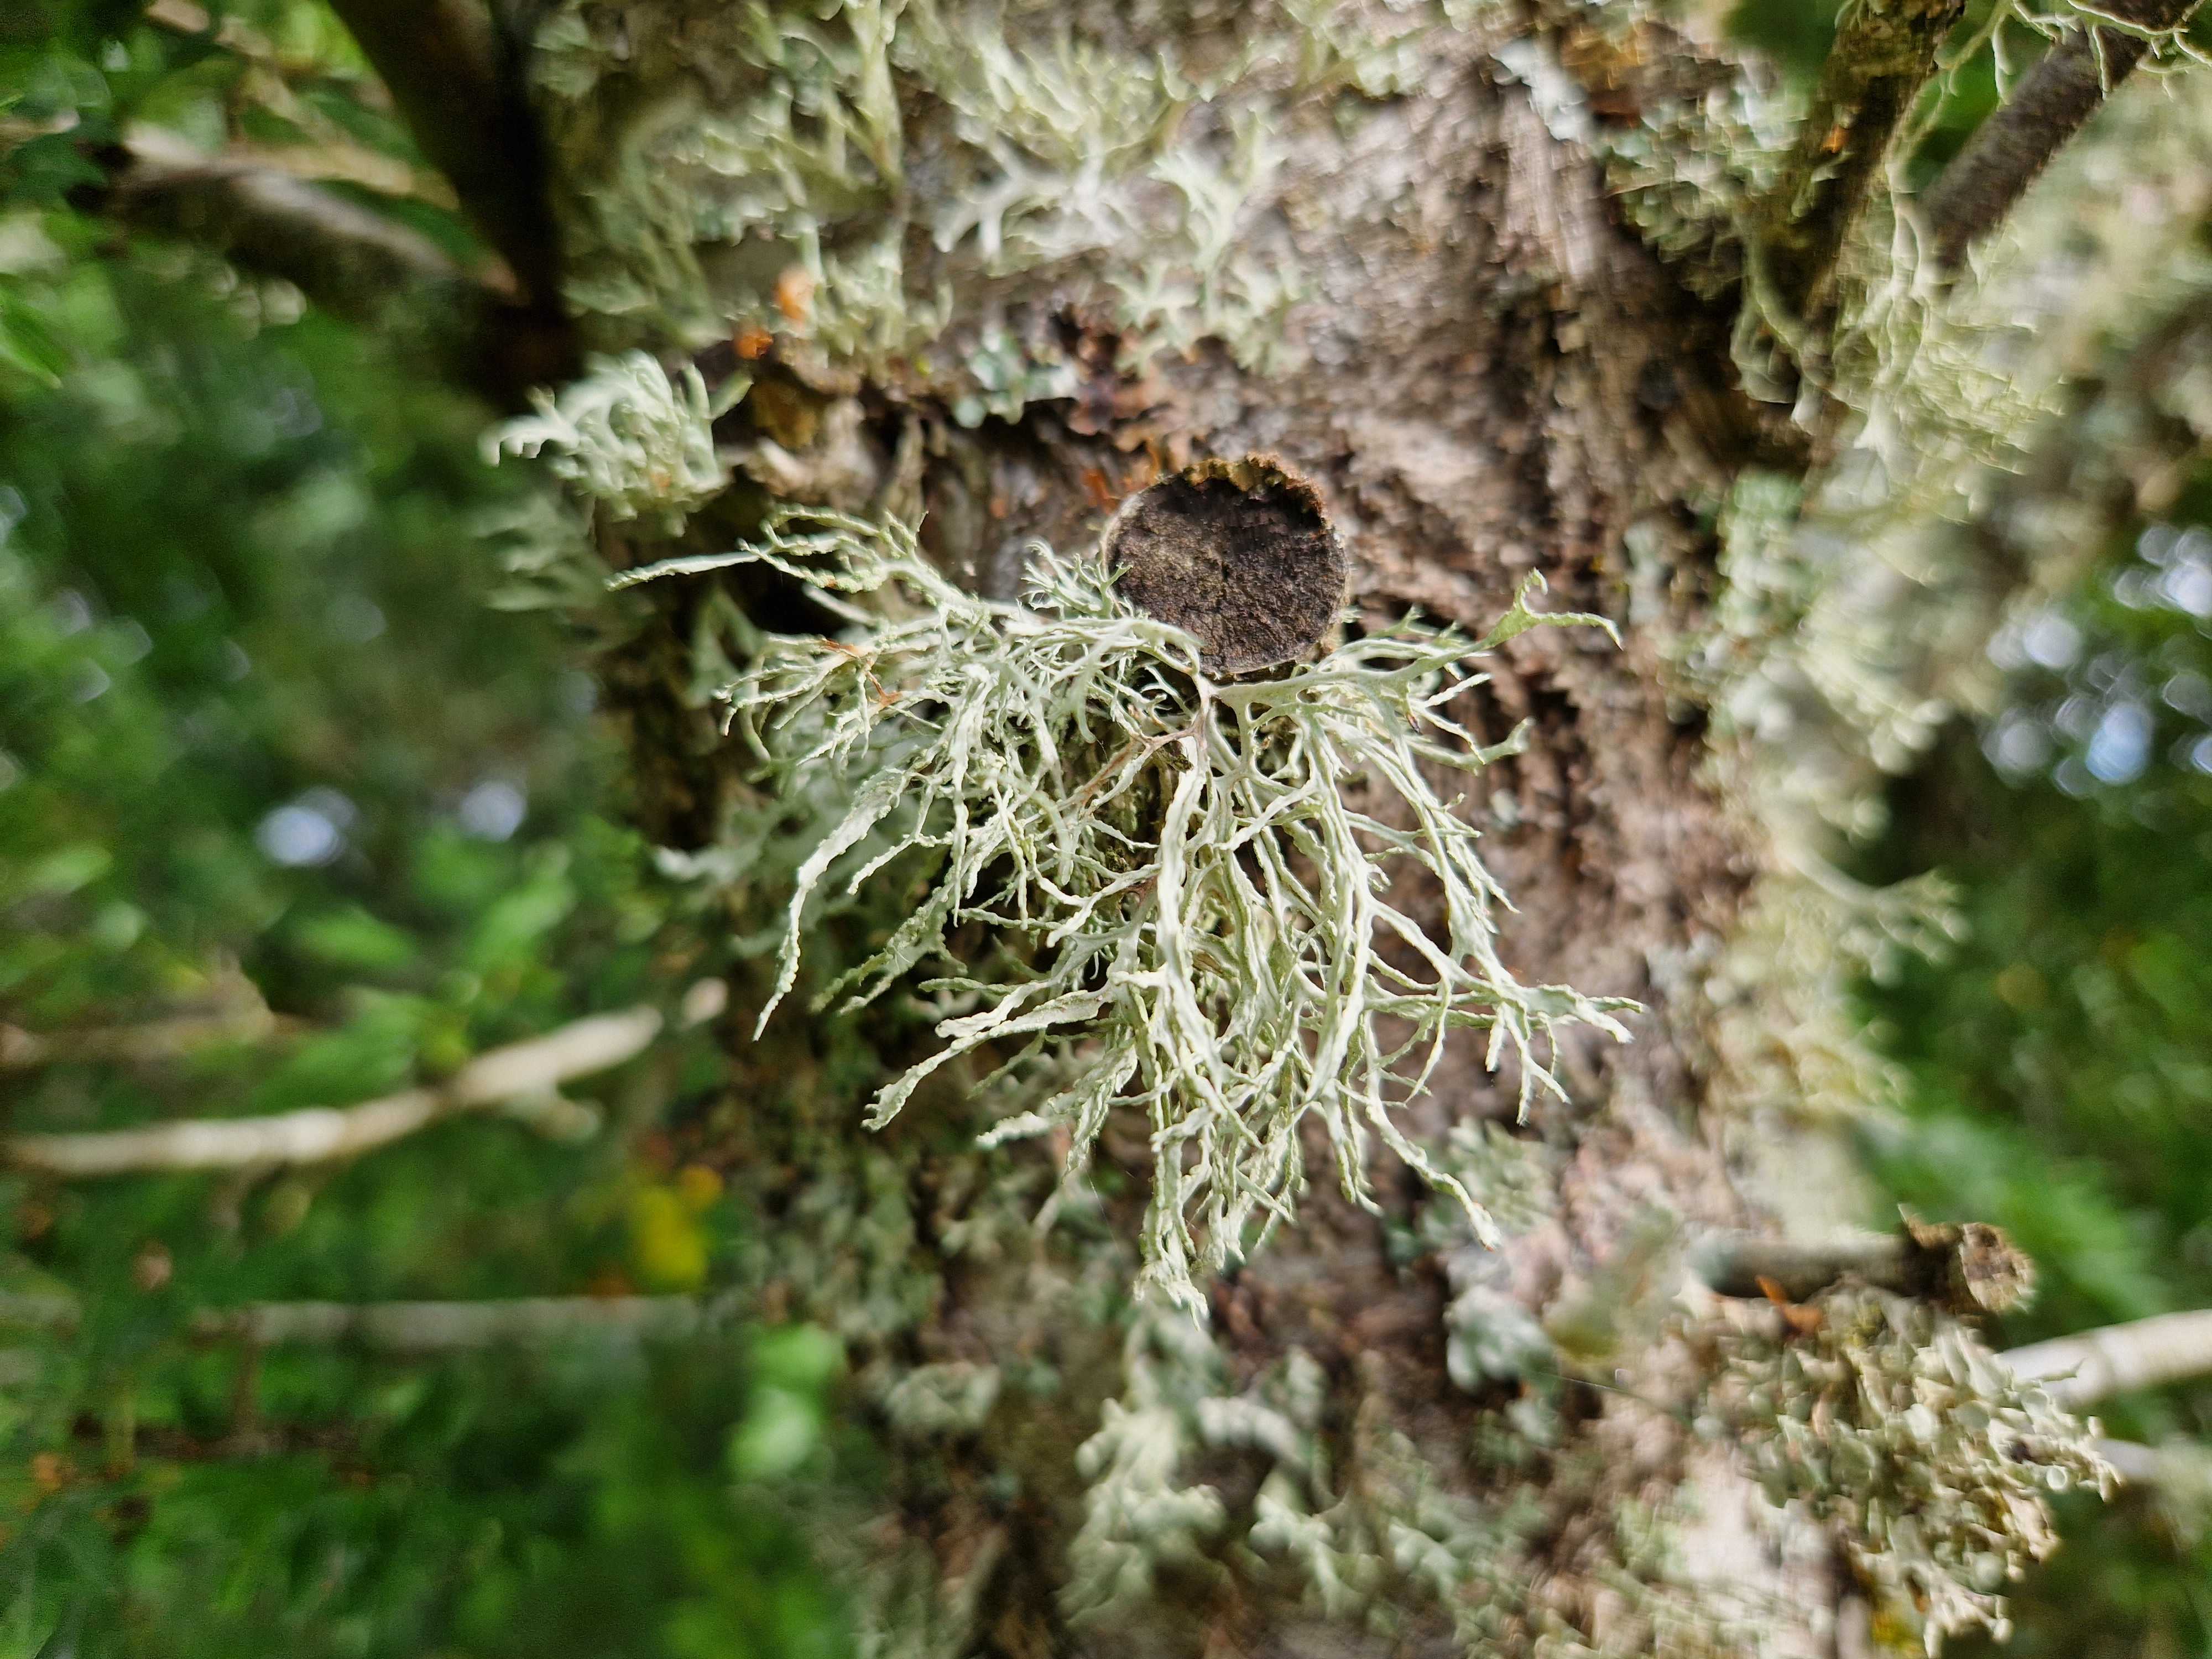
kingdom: Fungi
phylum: Ascomycota
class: Lecanoromycetes
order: Lecanorales
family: Ramalinaceae
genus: Ramalina
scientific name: Ramalina farinacea
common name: melet grenlav
